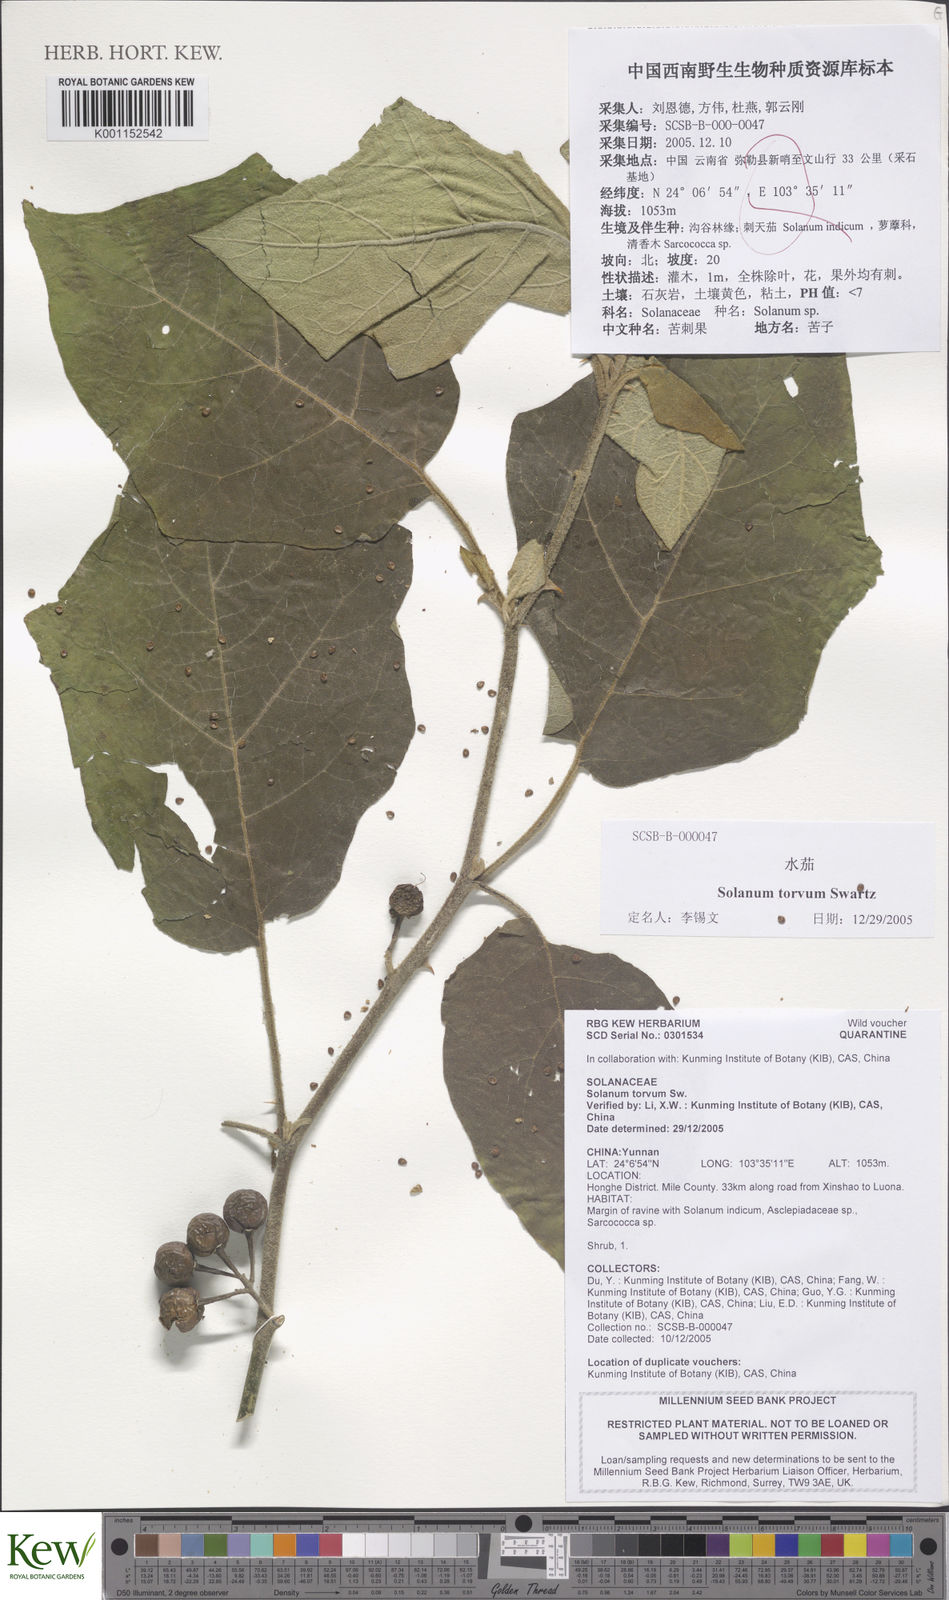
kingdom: Plantae
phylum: Tracheophyta
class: Magnoliopsida
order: Solanales
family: Solanaceae
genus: Solanum
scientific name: Solanum torvum
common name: Turkey berry
